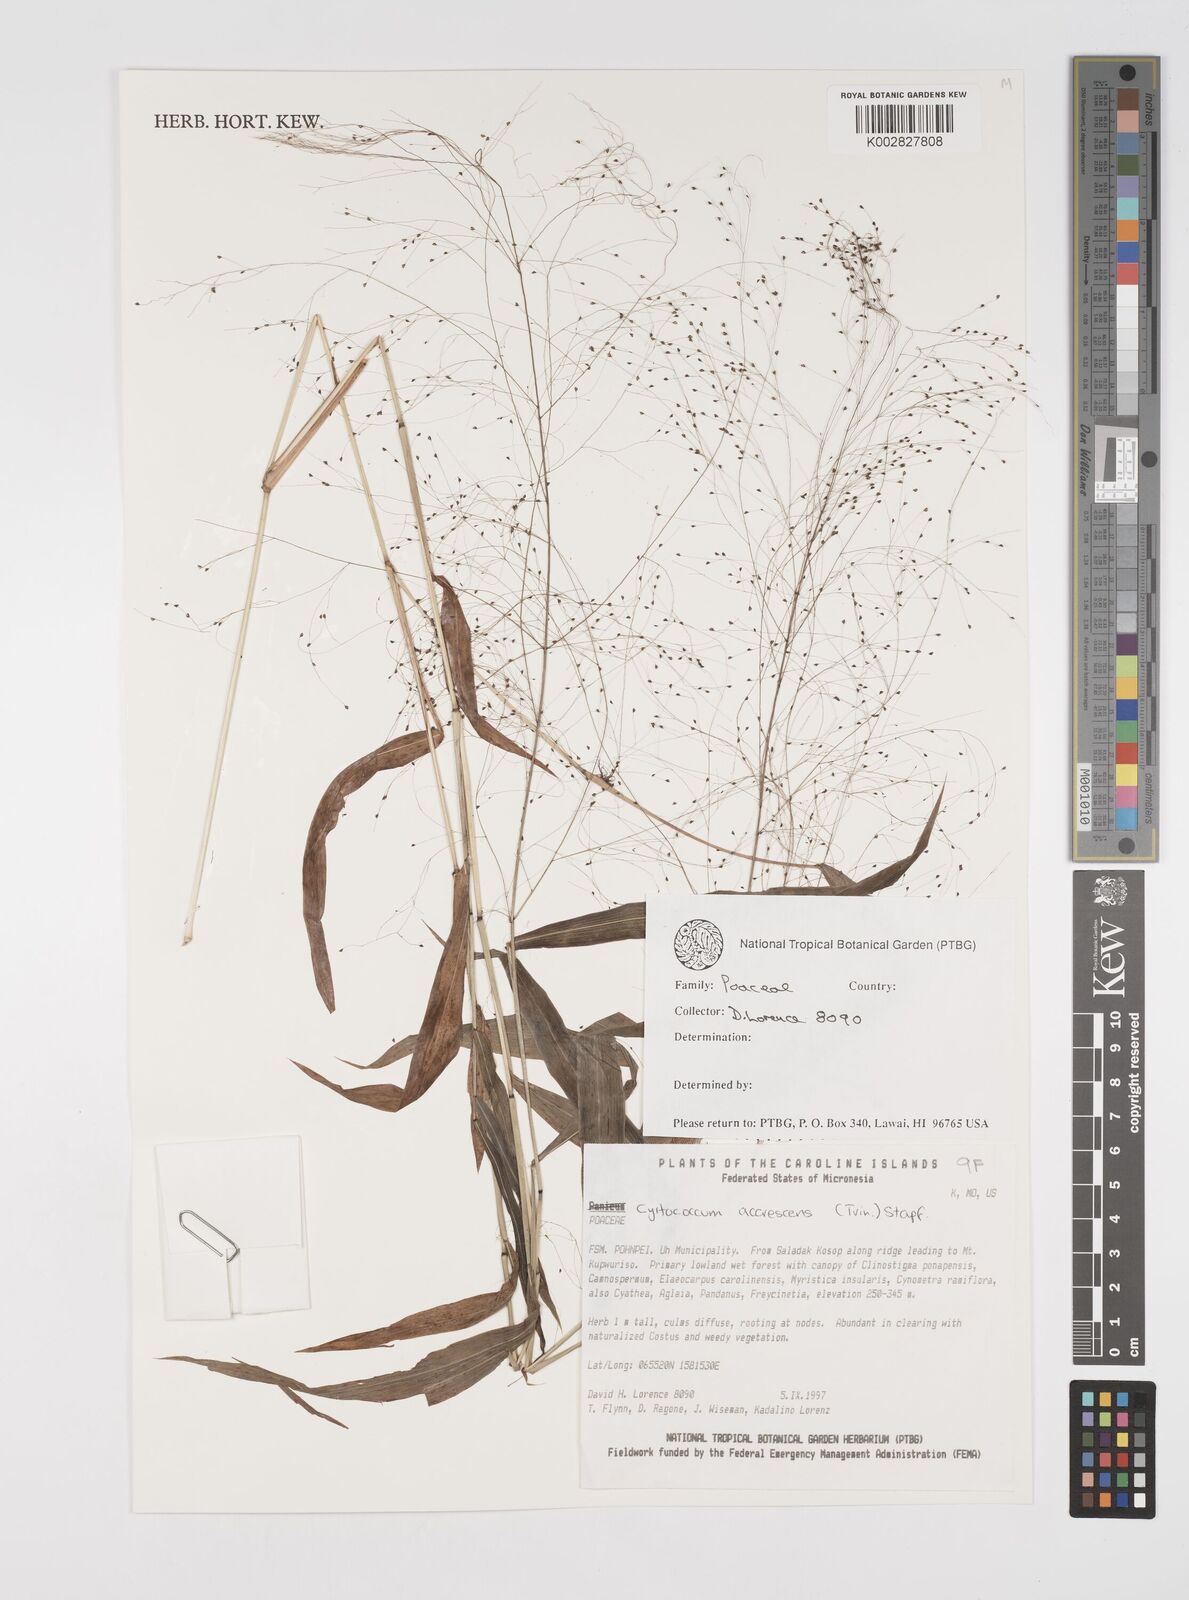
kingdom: Plantae
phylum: Tracheophyta
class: Liliopsida
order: Poales
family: Poaceae
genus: Cyrtococcum
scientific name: Cyrtococcum accrescens
